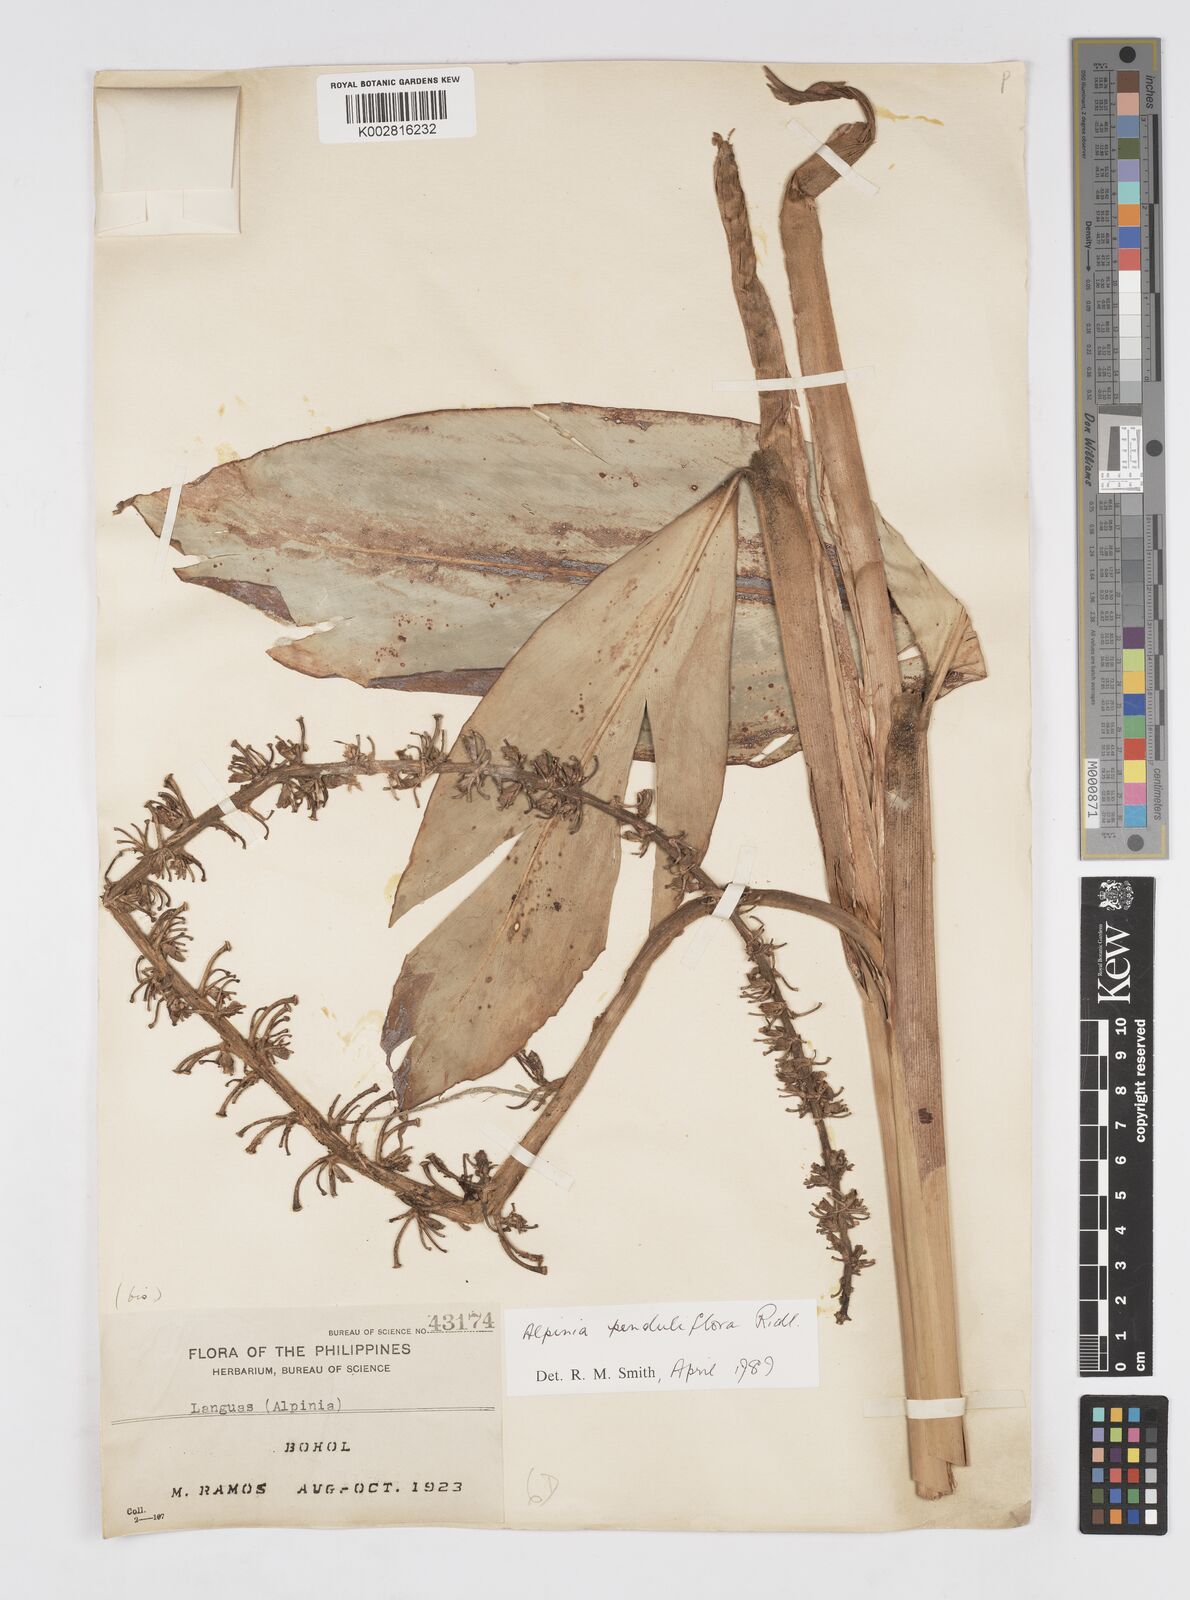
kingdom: Plantae
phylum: Tracheophyta
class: Liliopsida
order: Zingiberales
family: Zingiberaceae
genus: Alpinia
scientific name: Alpinia penduliflora
